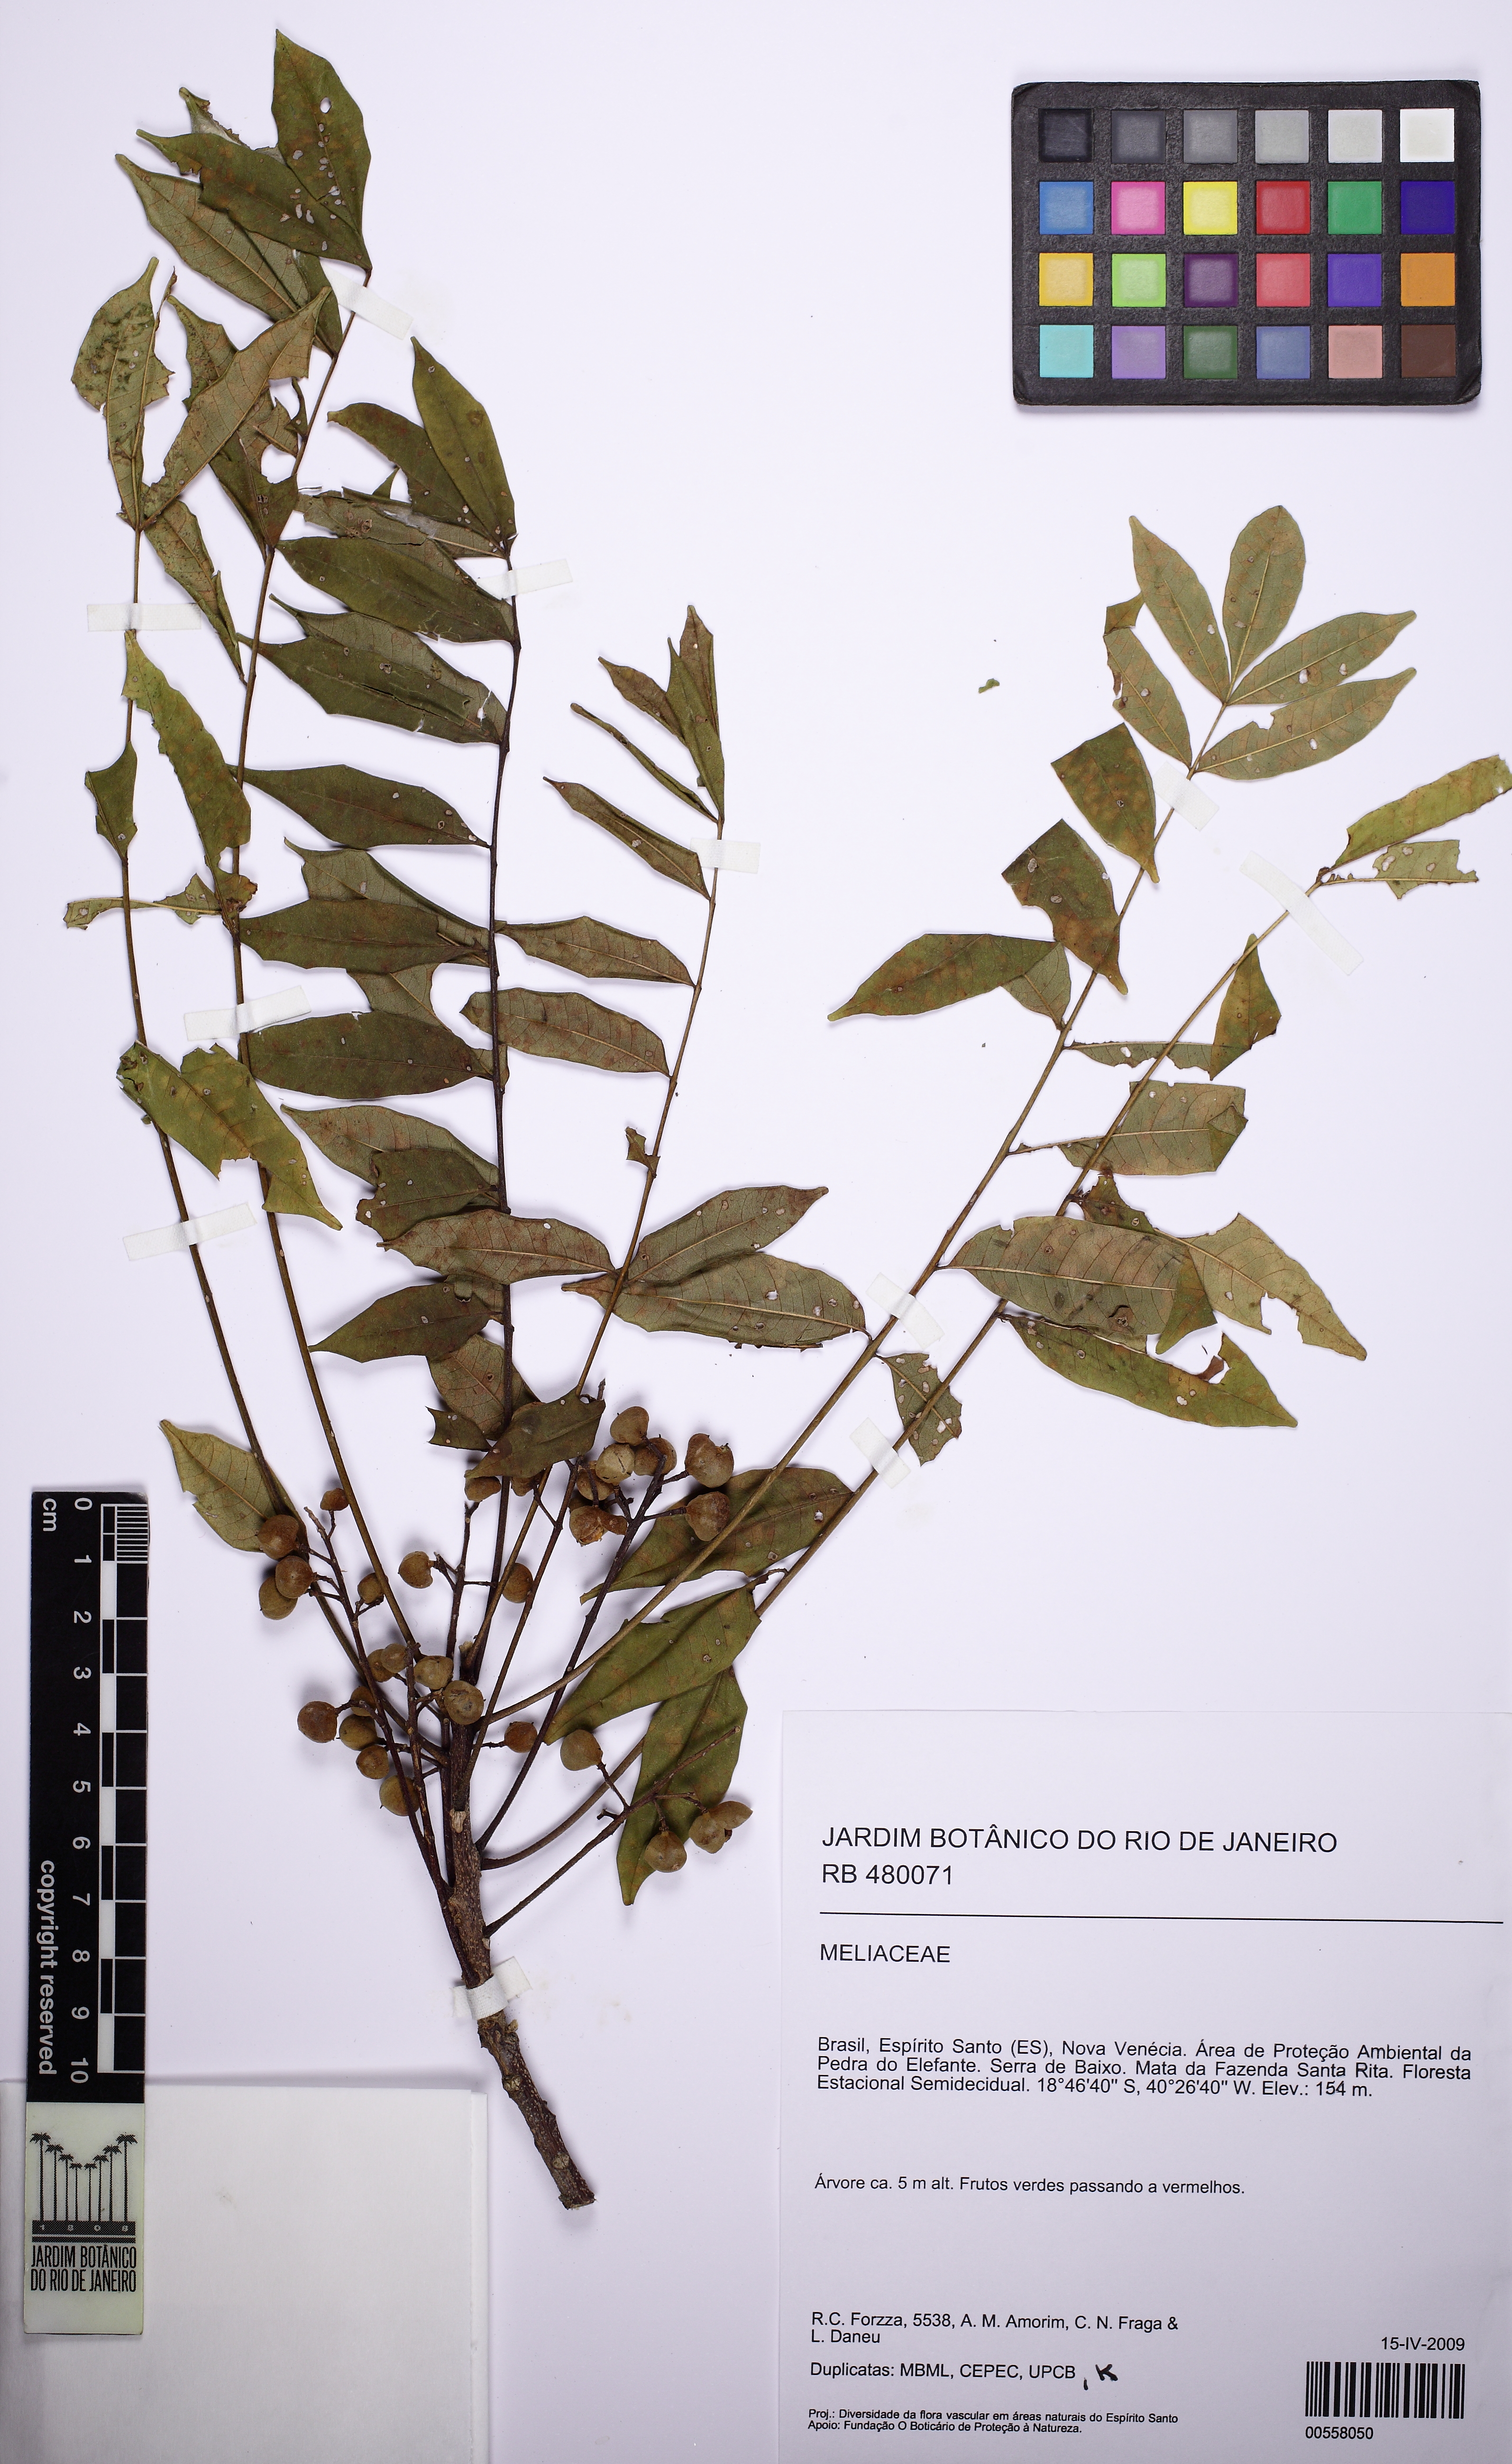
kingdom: Plantae
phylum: Tracheophyta
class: Magnoliopsida
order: Sapindales
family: Meliaceae
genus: Trichilia
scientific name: Trichilia hirta
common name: Red-cedar
